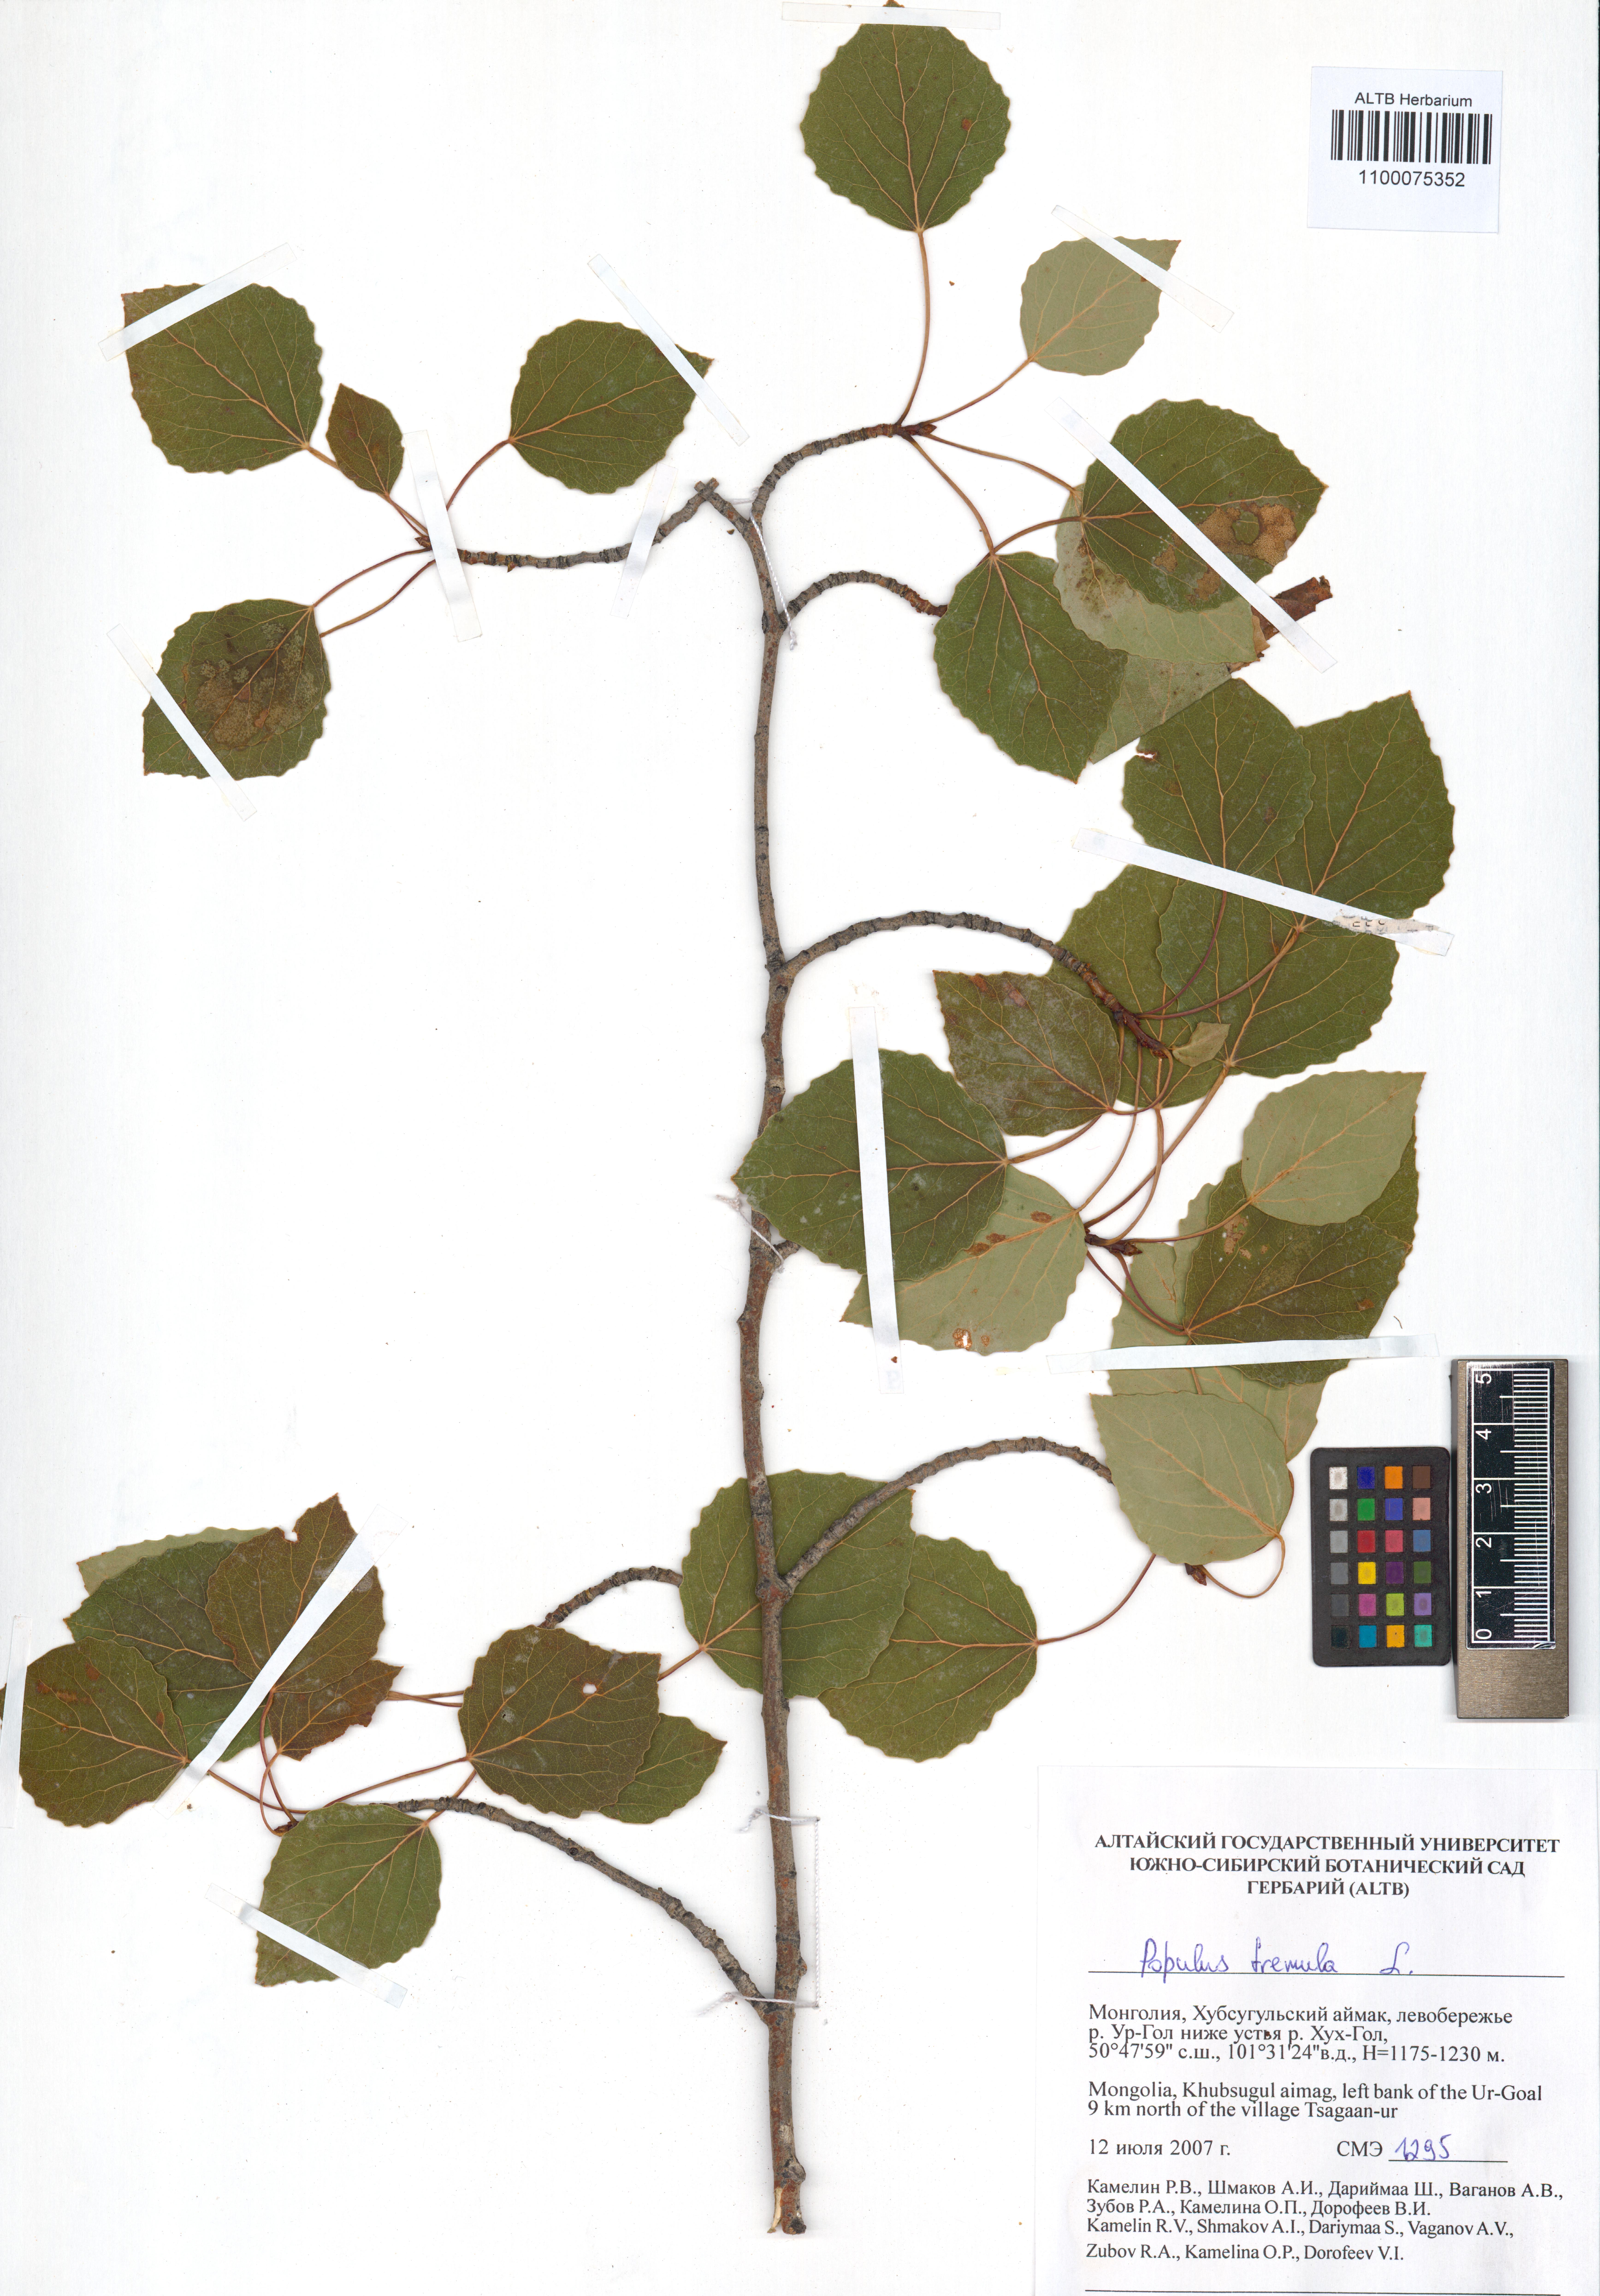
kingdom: Plantae
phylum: Tracheophyta
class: Magnoliopsida
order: Malpighiales
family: Salicaceae
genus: Populus
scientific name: Populus tremula
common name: European aspen
